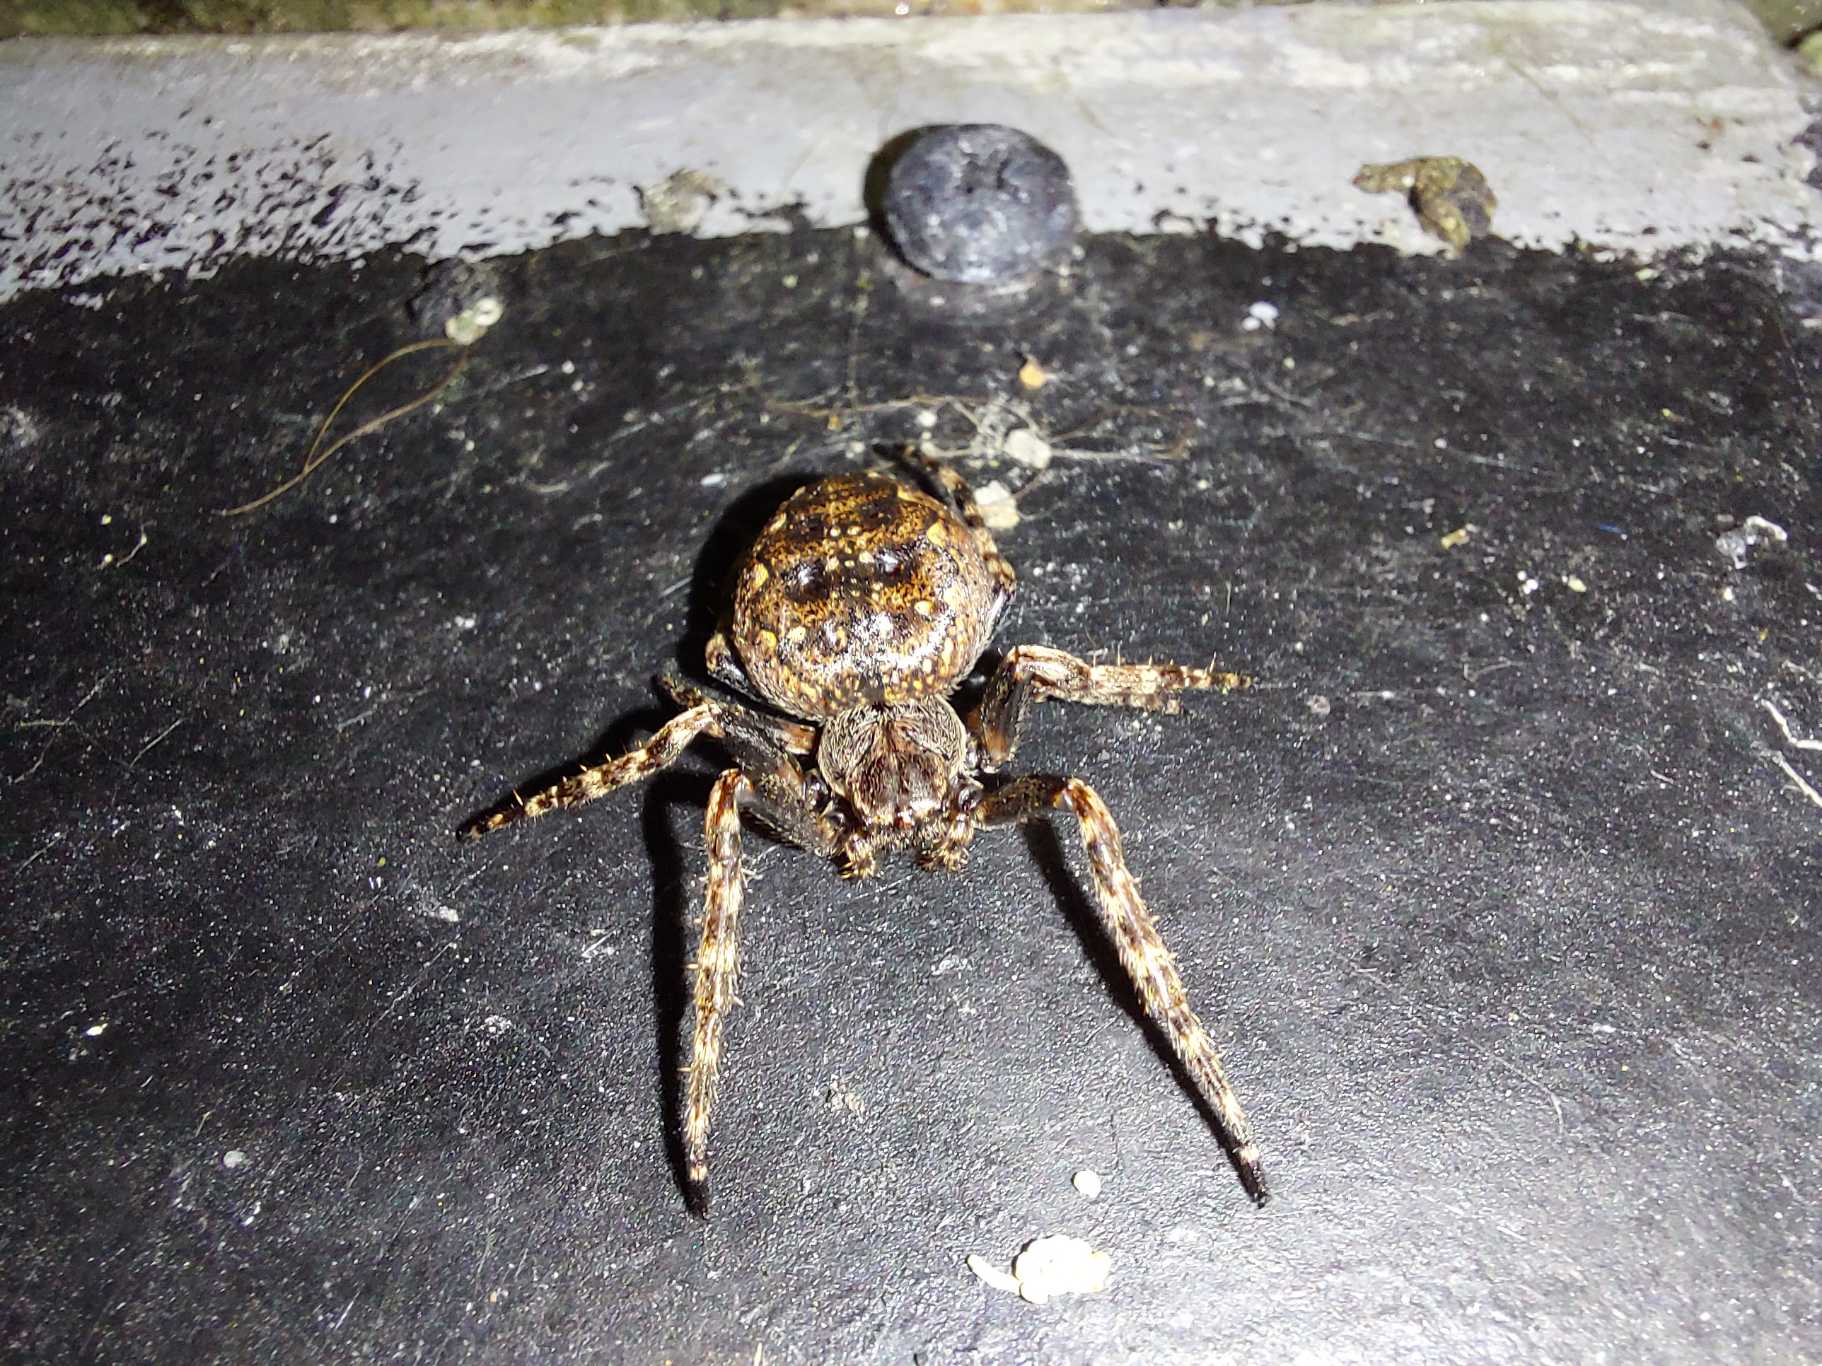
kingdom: Animalia
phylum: Arthropoda
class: Arachnida
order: Araneae
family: Araneidae
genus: Nuctenea
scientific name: Nuctenea umbratica
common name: Flad hjulspinder
